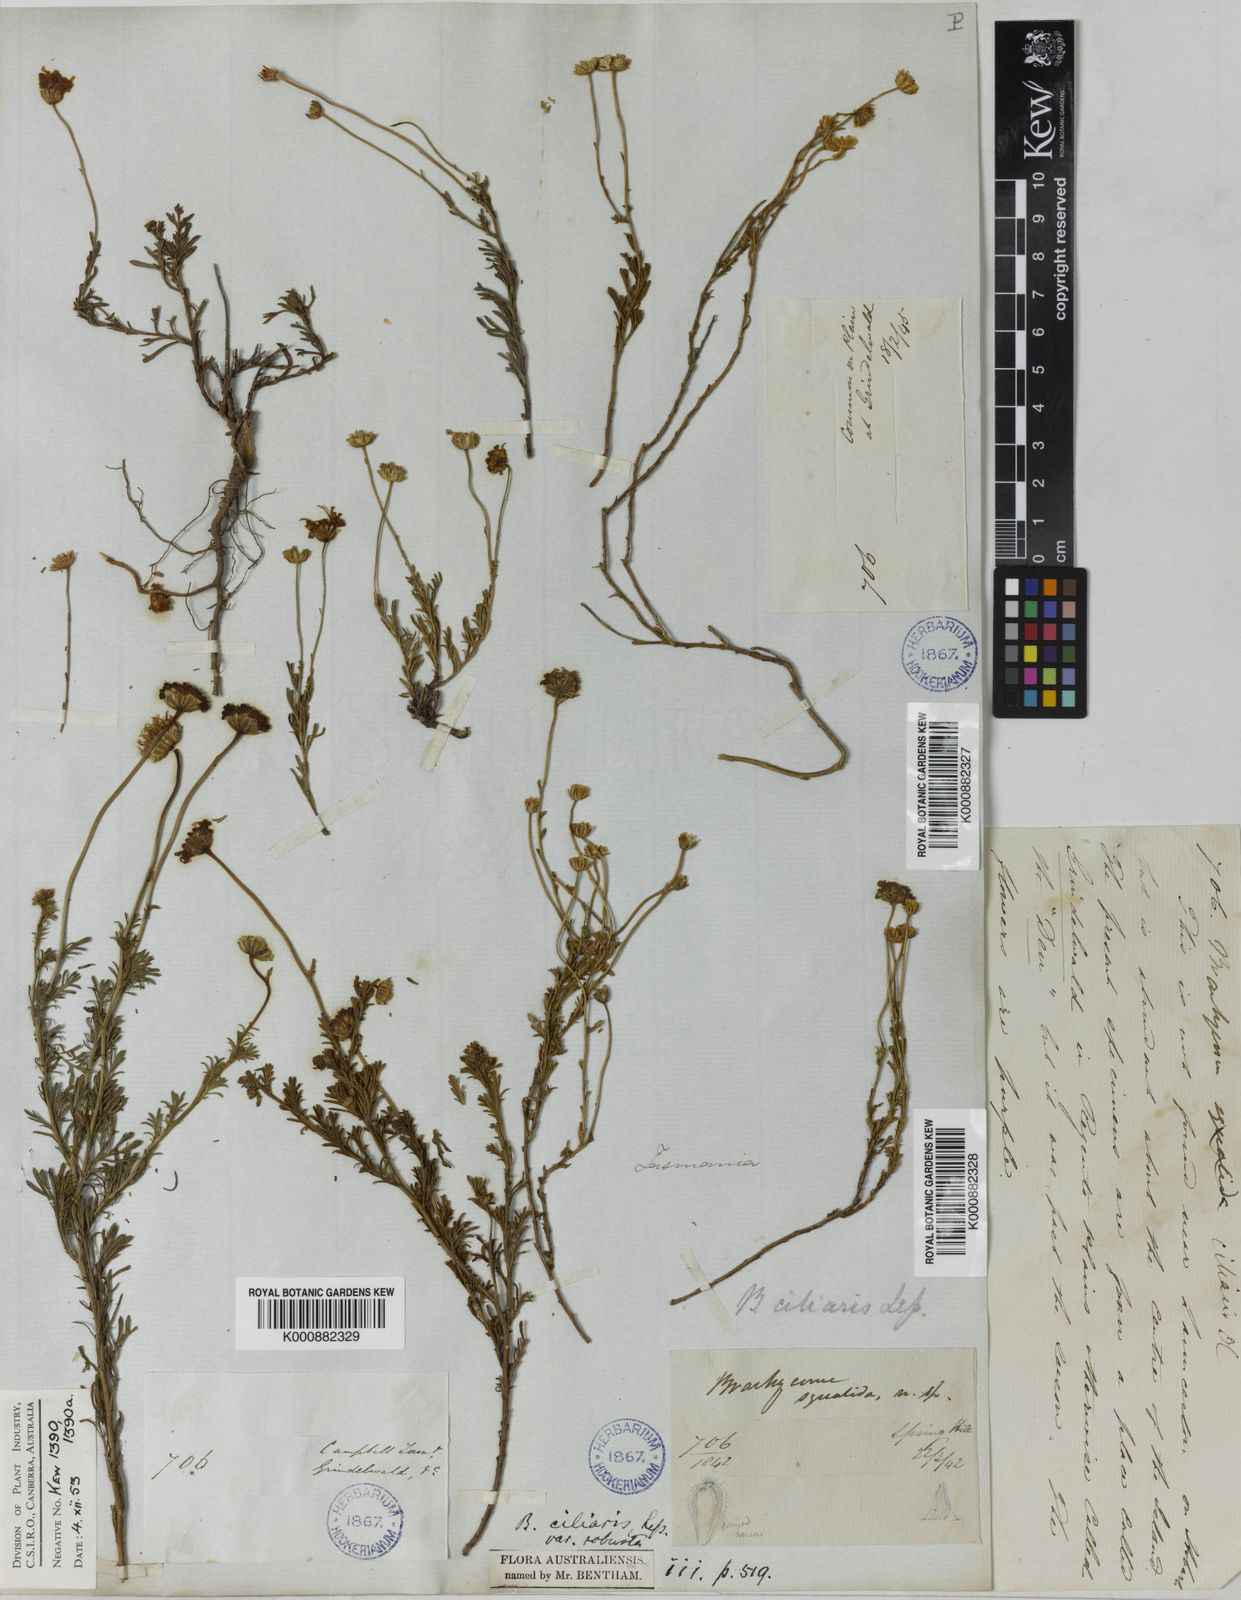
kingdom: Plantae
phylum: Tracheophyta
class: Magnoliopsida
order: Asterales
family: Asteraceae
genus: Brachyscome
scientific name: Brachyscome rigidula
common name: Leafy daisy
